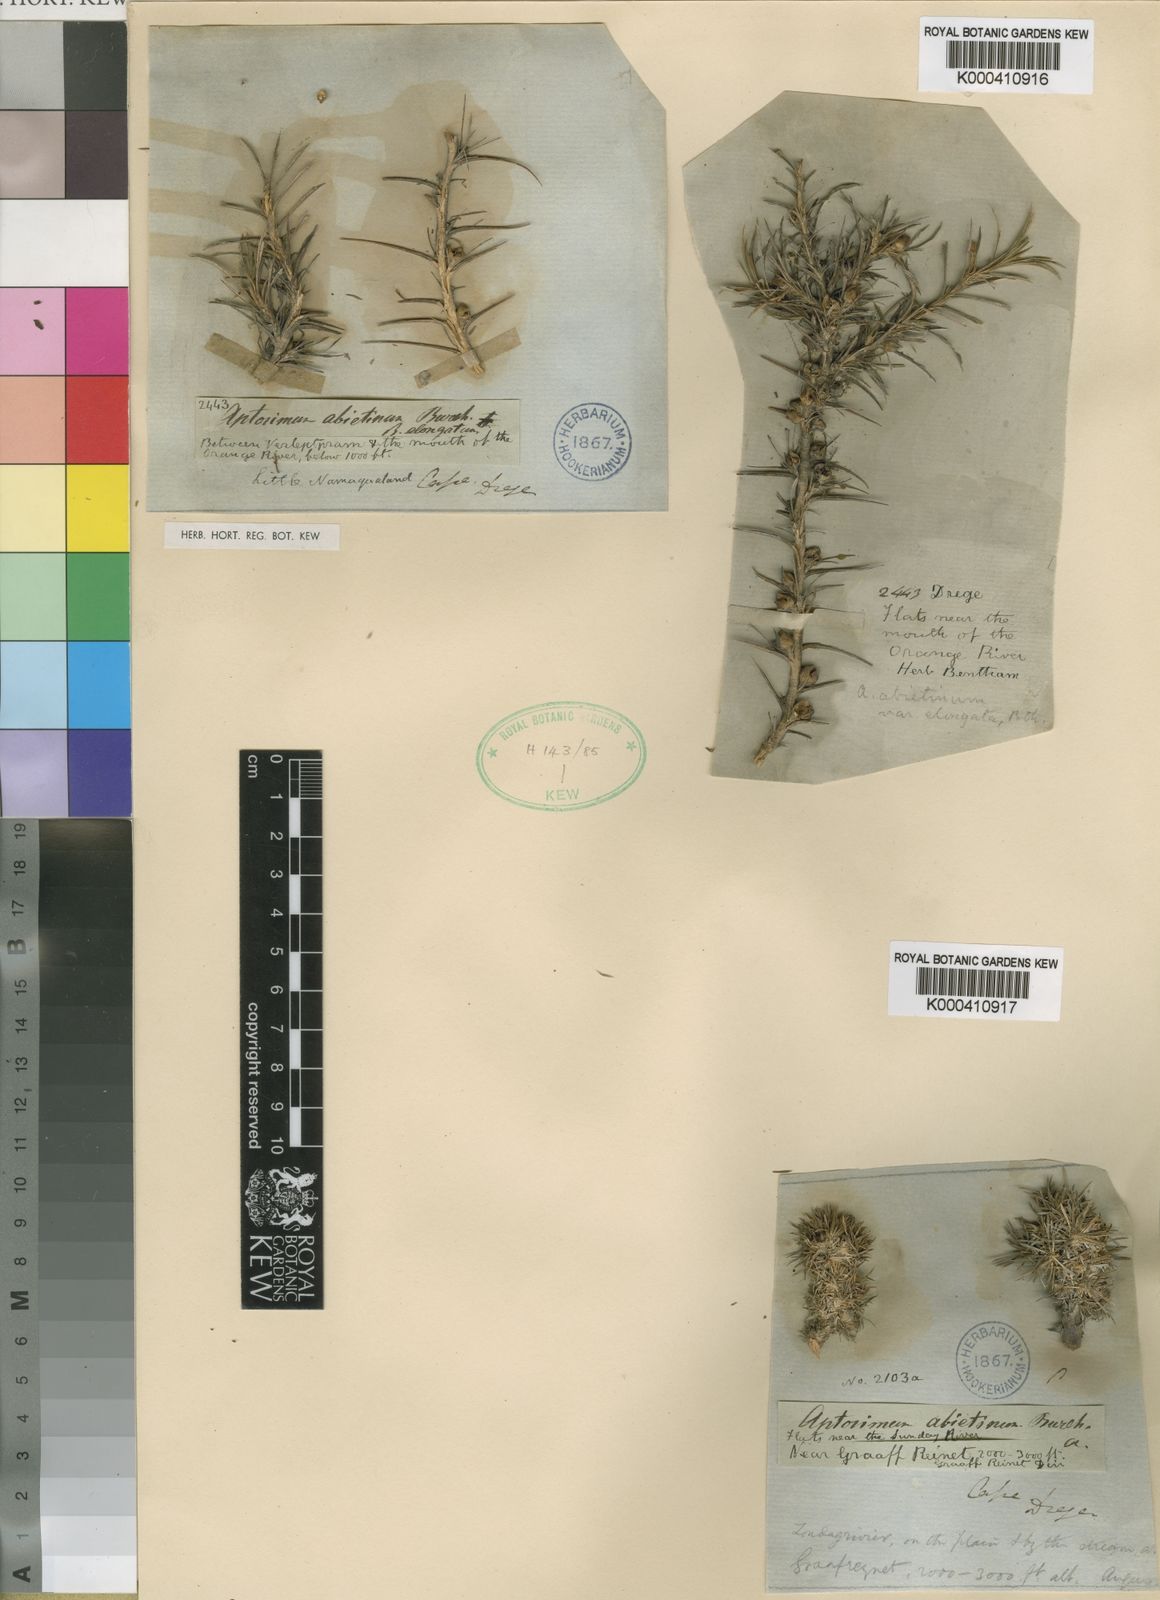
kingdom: Plantae
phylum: Tracheophyta
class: Magnoliopsida
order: Lamiales
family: Scrophulariaceae
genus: Aptosimum
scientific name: Aptosimum spinescens
